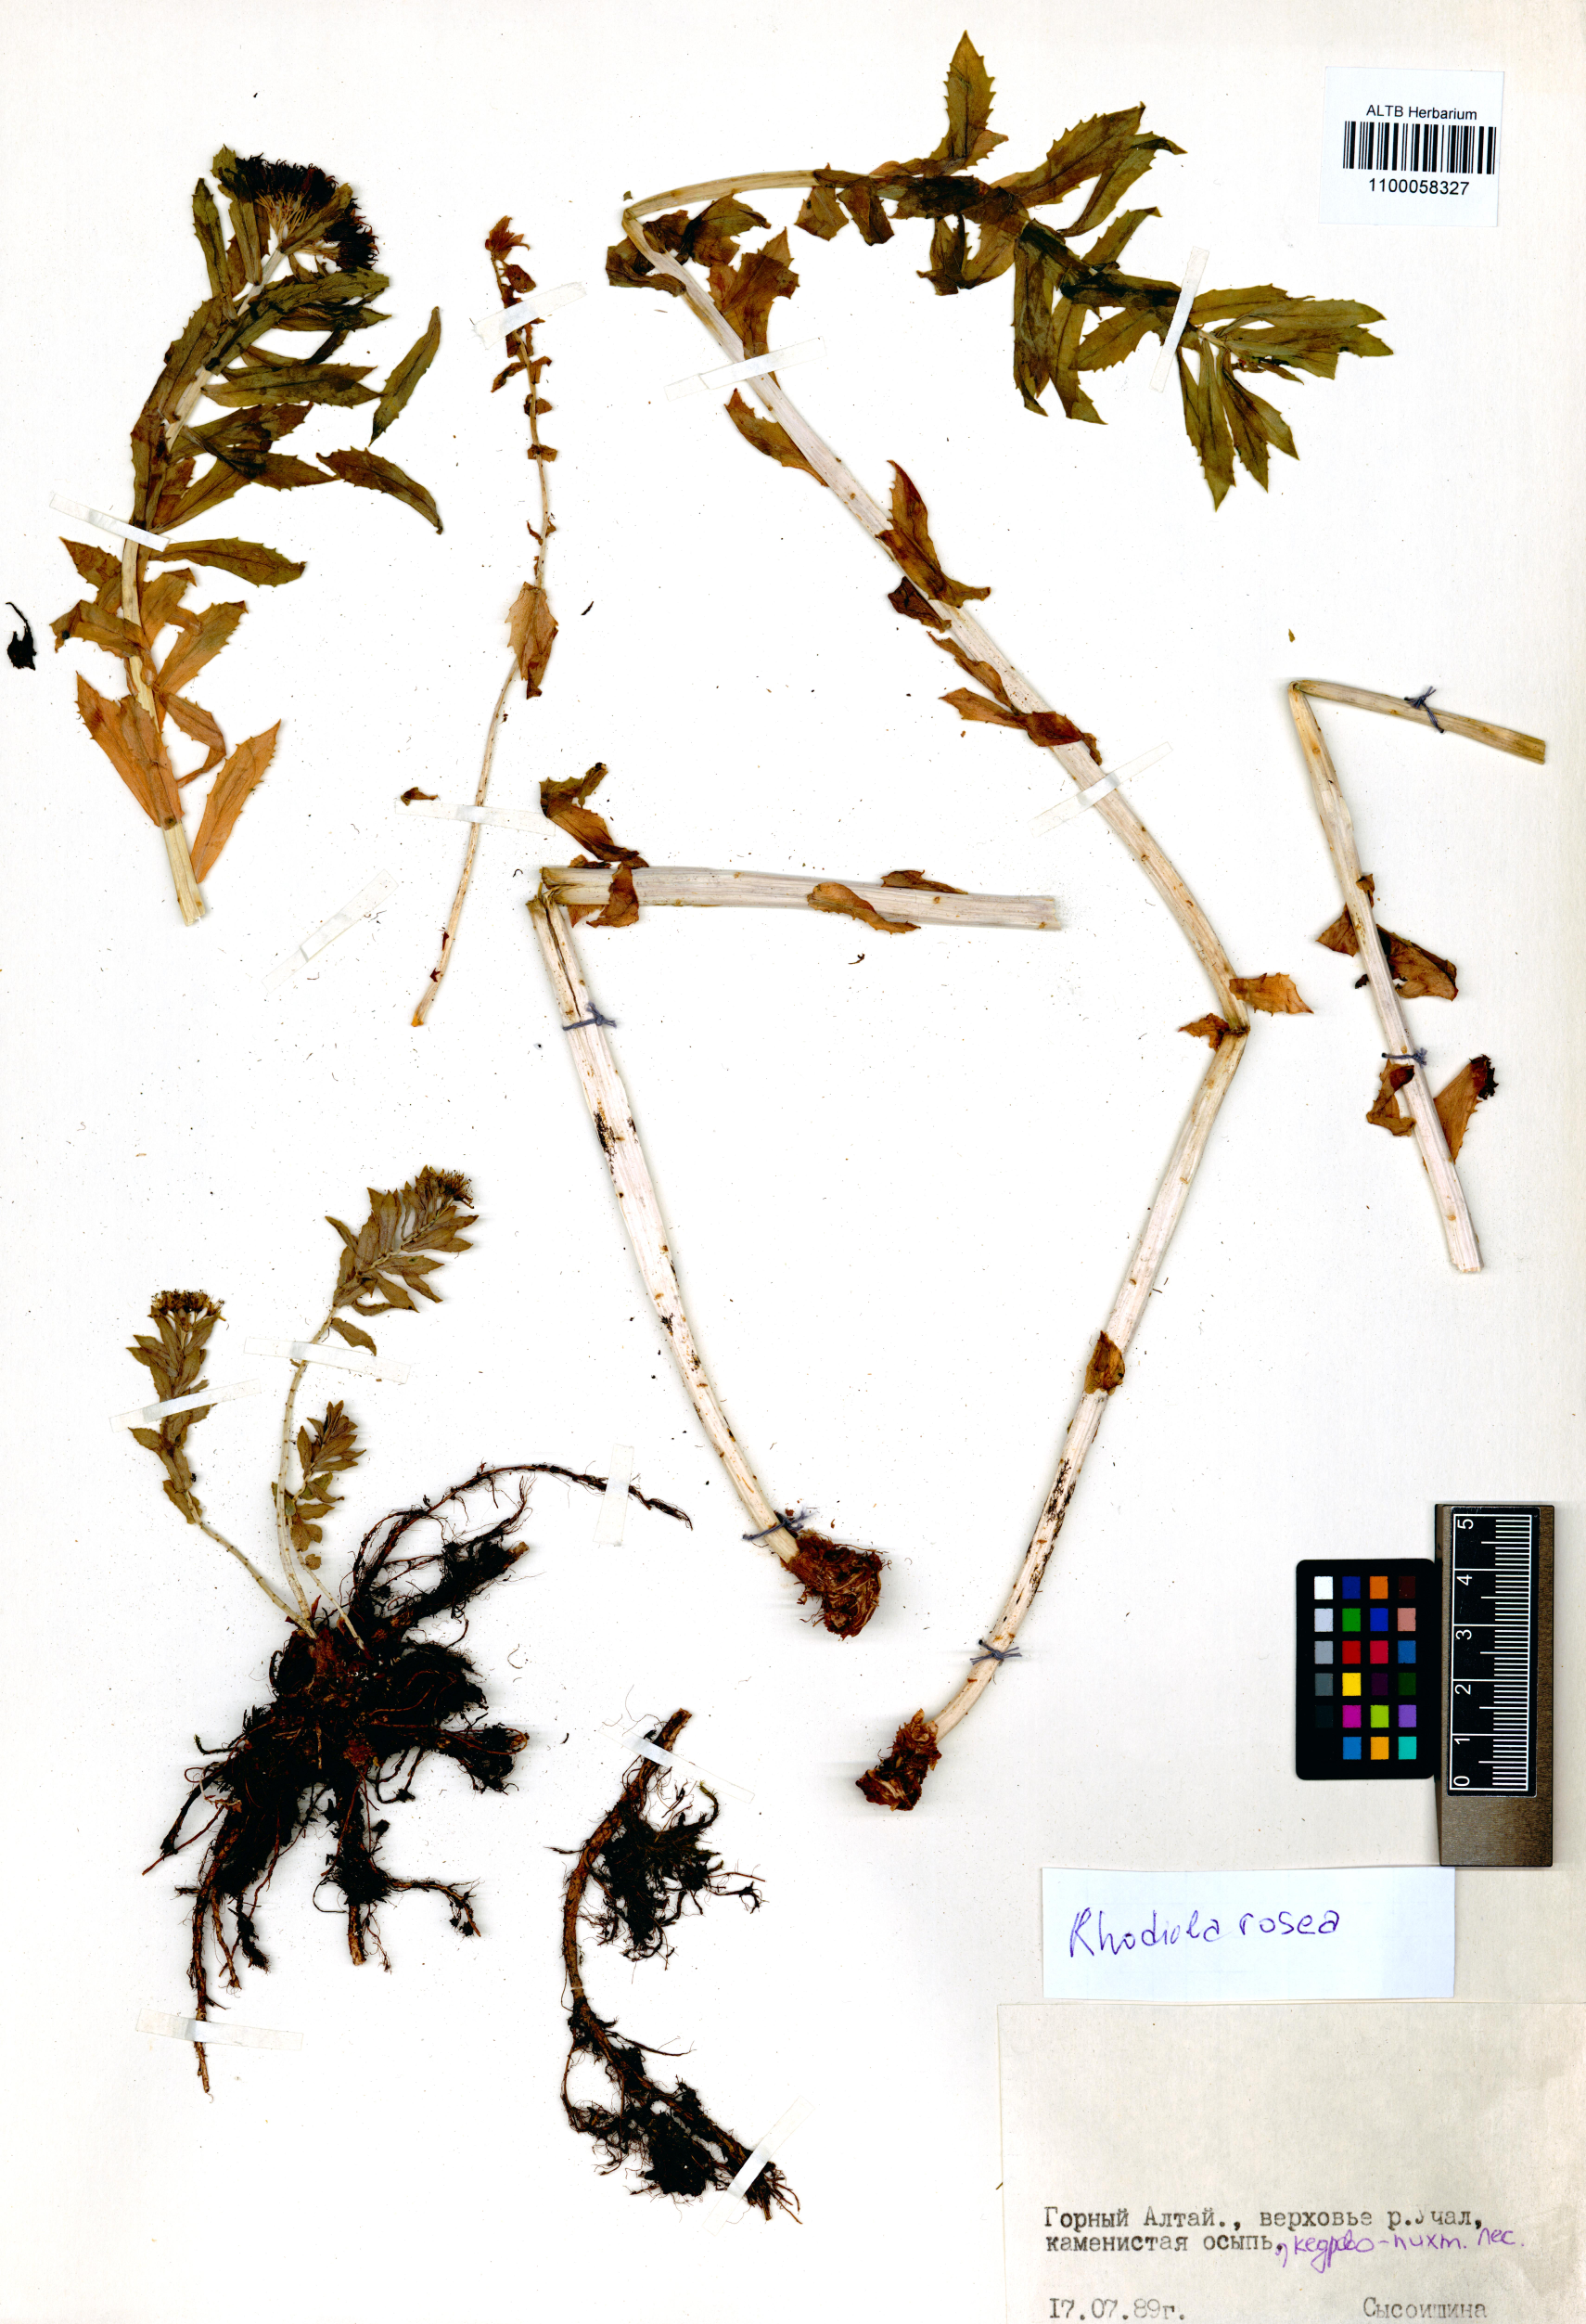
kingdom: Plantae
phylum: Tracheophyta
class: Magnoliopsida
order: Saxifragales
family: Crassulaceae
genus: Rhodiola
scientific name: Rhodiola rosea
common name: Roseroot
